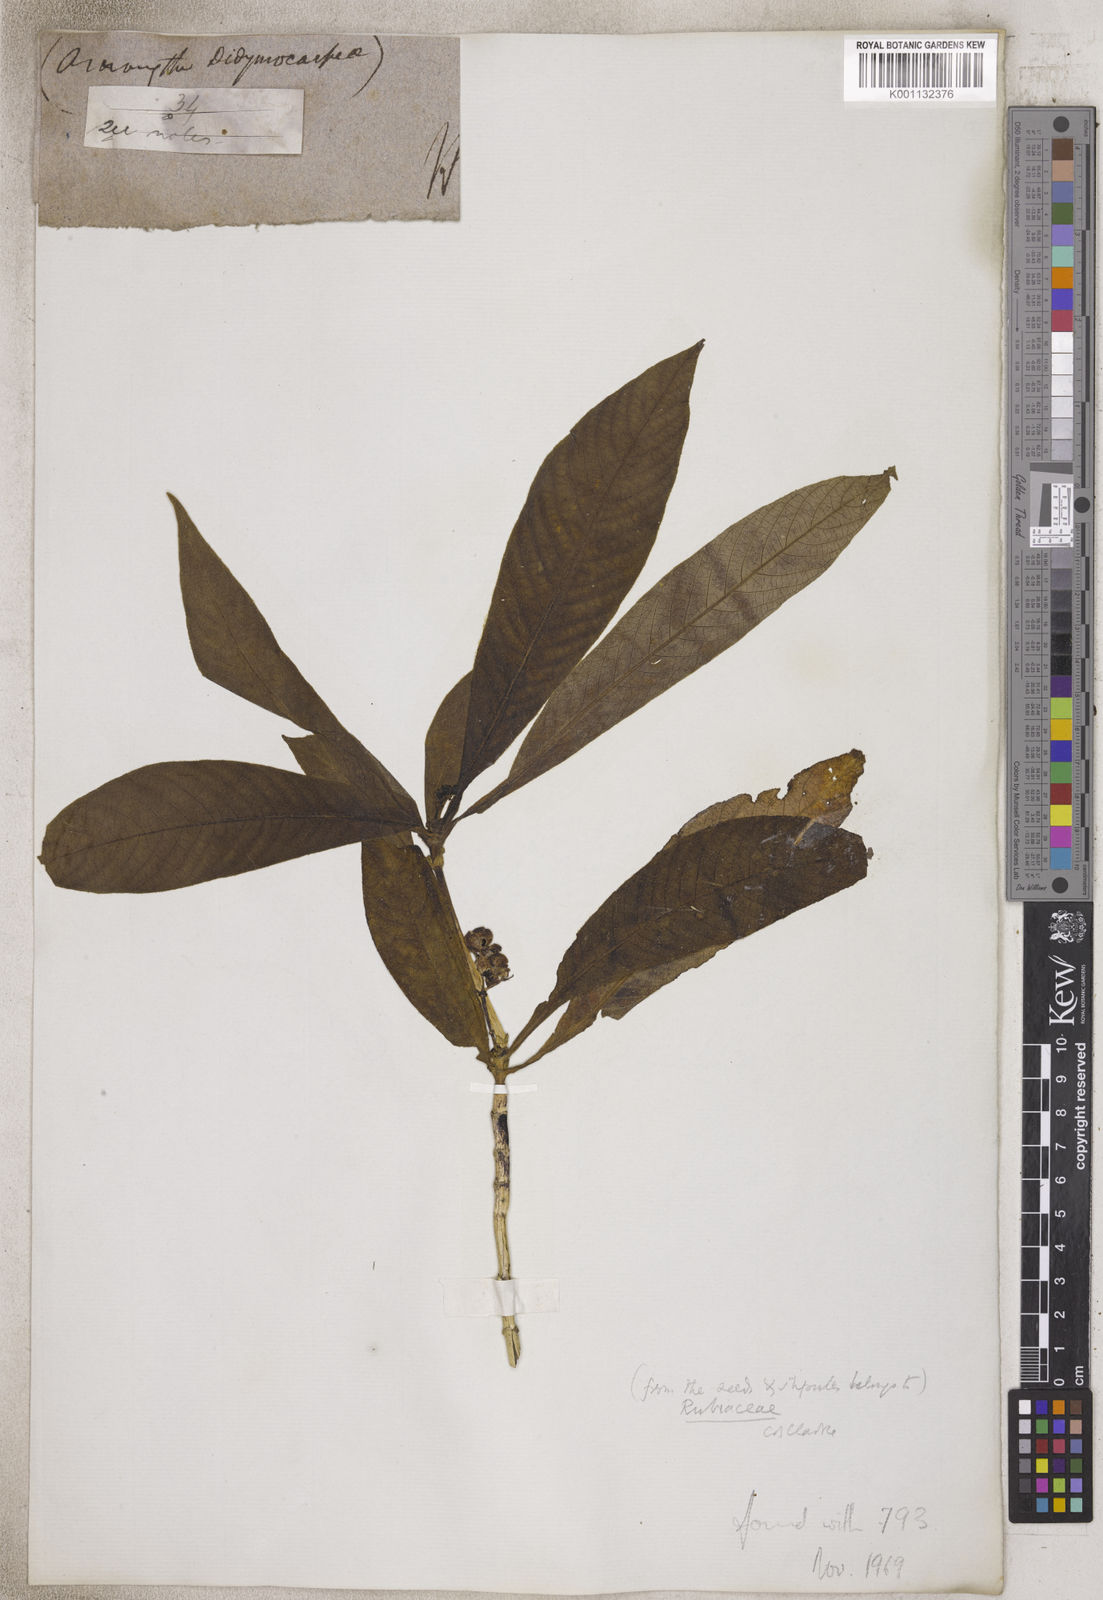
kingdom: Plantae
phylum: Tracheophyta
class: Magnoliopsida
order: Gentianales
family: Rubiaceae
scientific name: Rubiaceae
